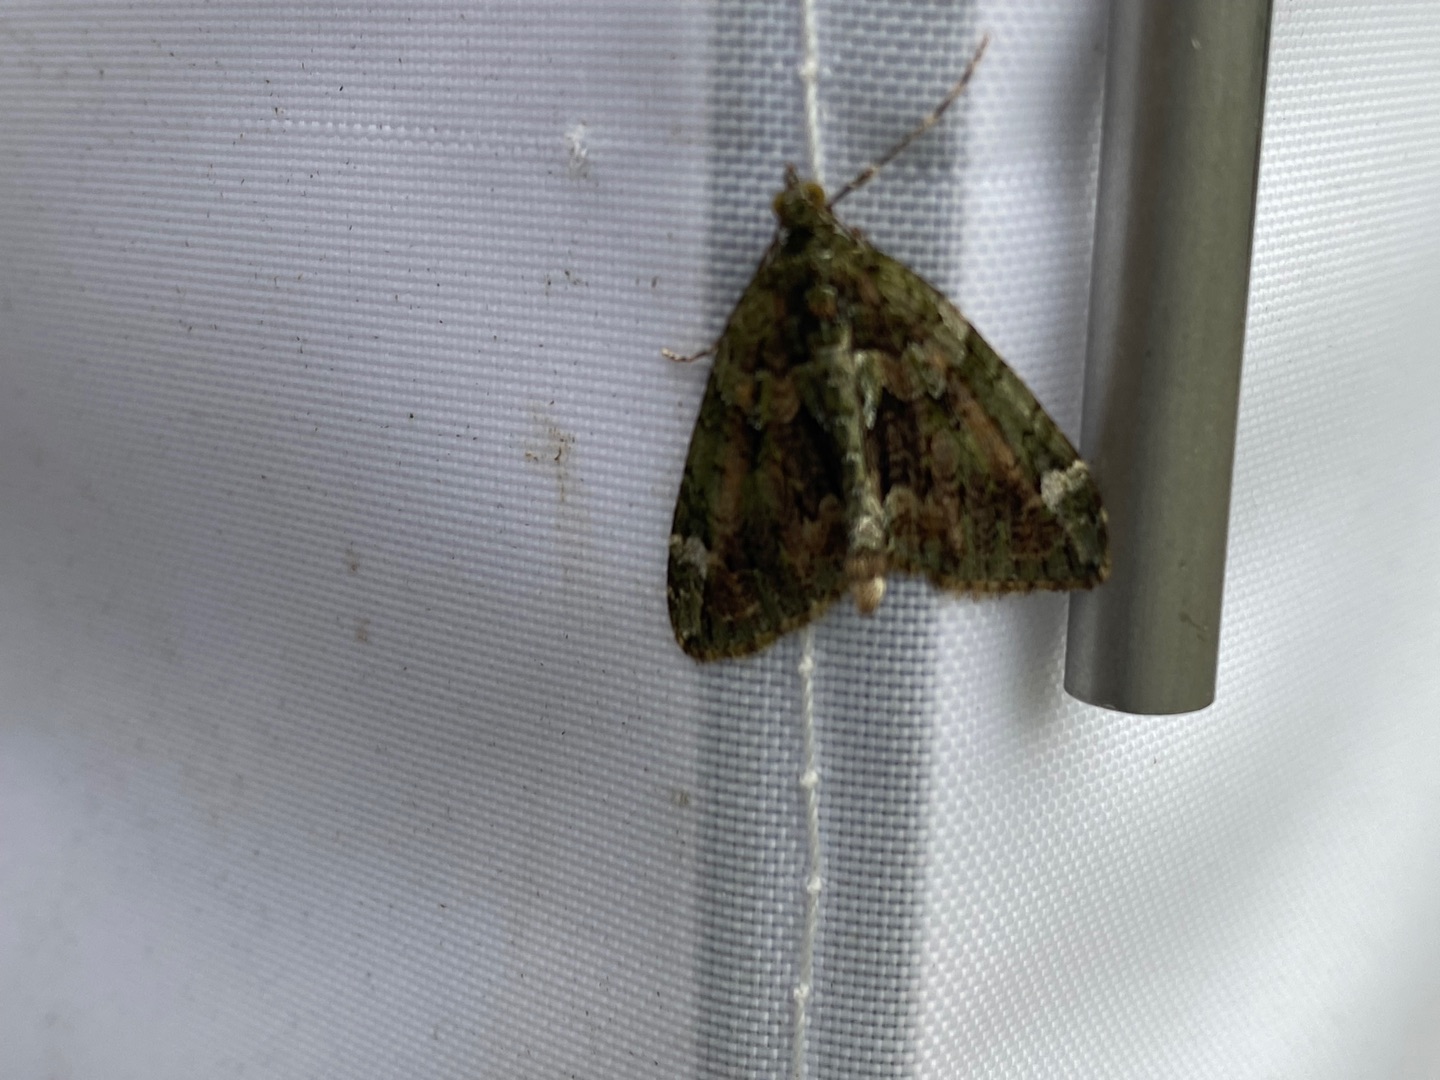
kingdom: Animalia
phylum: Arthropoda
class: Insecta
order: Lepidoptera
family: Geometridae
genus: Chloroclysta
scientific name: Chloroclysta siterata
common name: Brungrøn bladmåler
